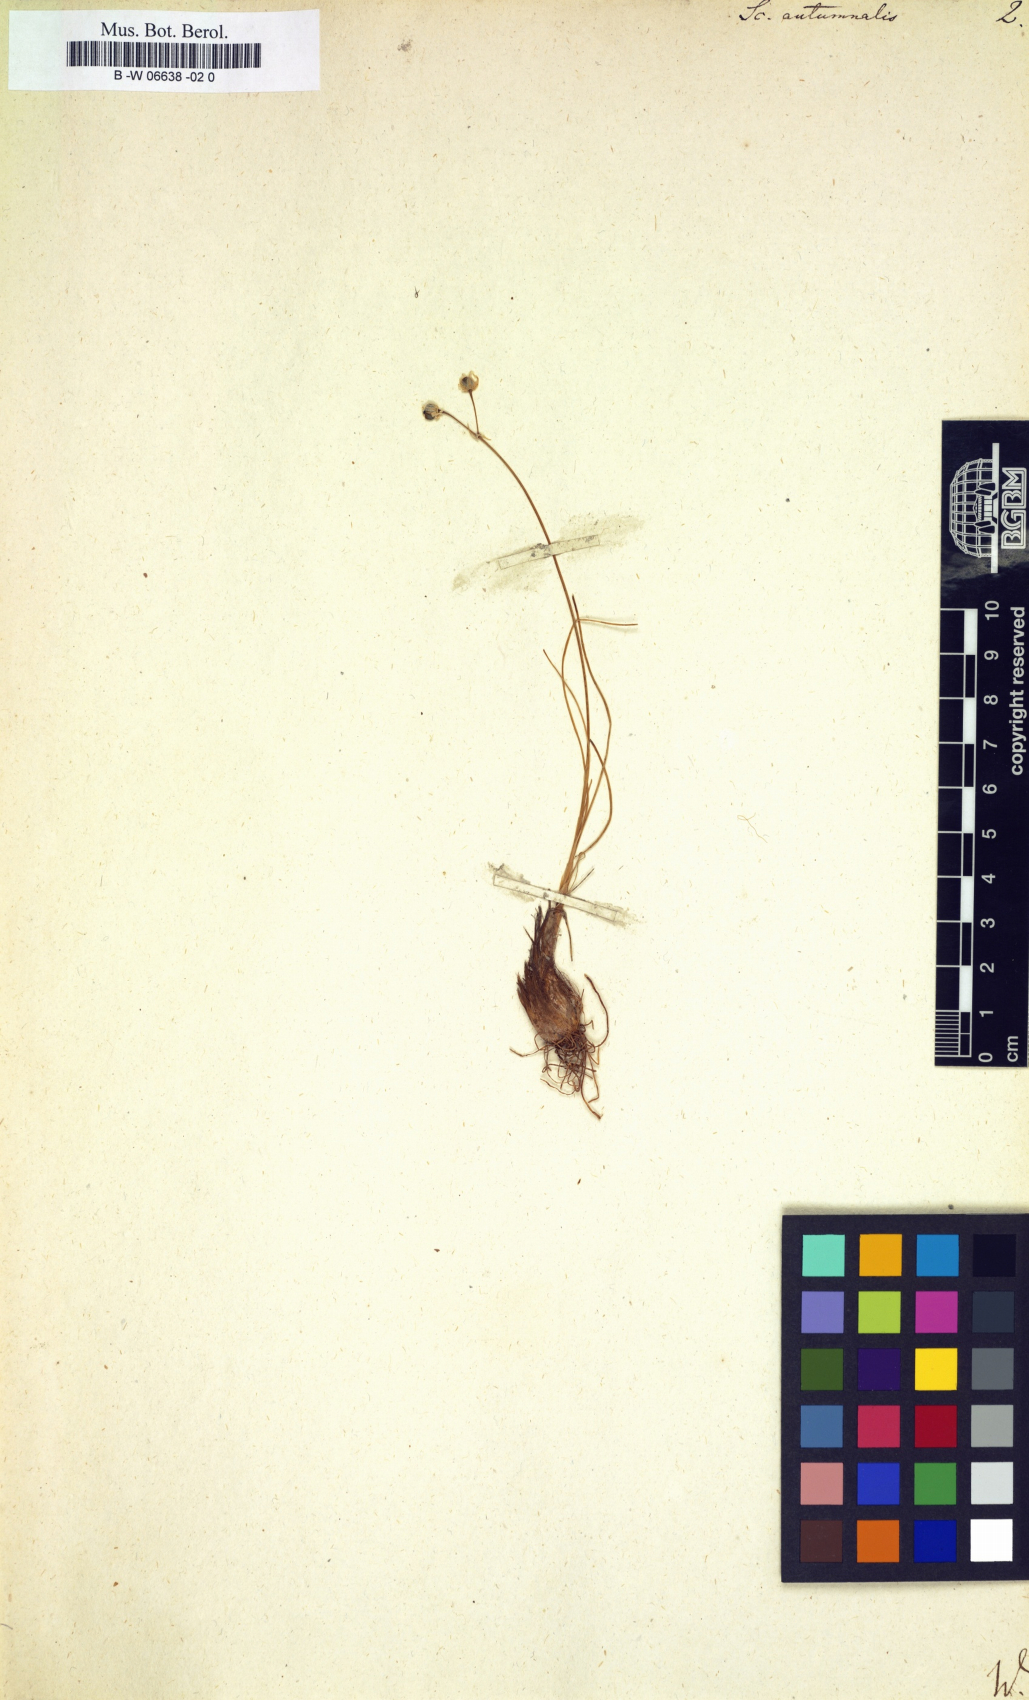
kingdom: Plantae
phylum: Tracheophyta
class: Liliopsida
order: Asparagales
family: Asparagaceae
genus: Scilla
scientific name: Scilla autumnalis
